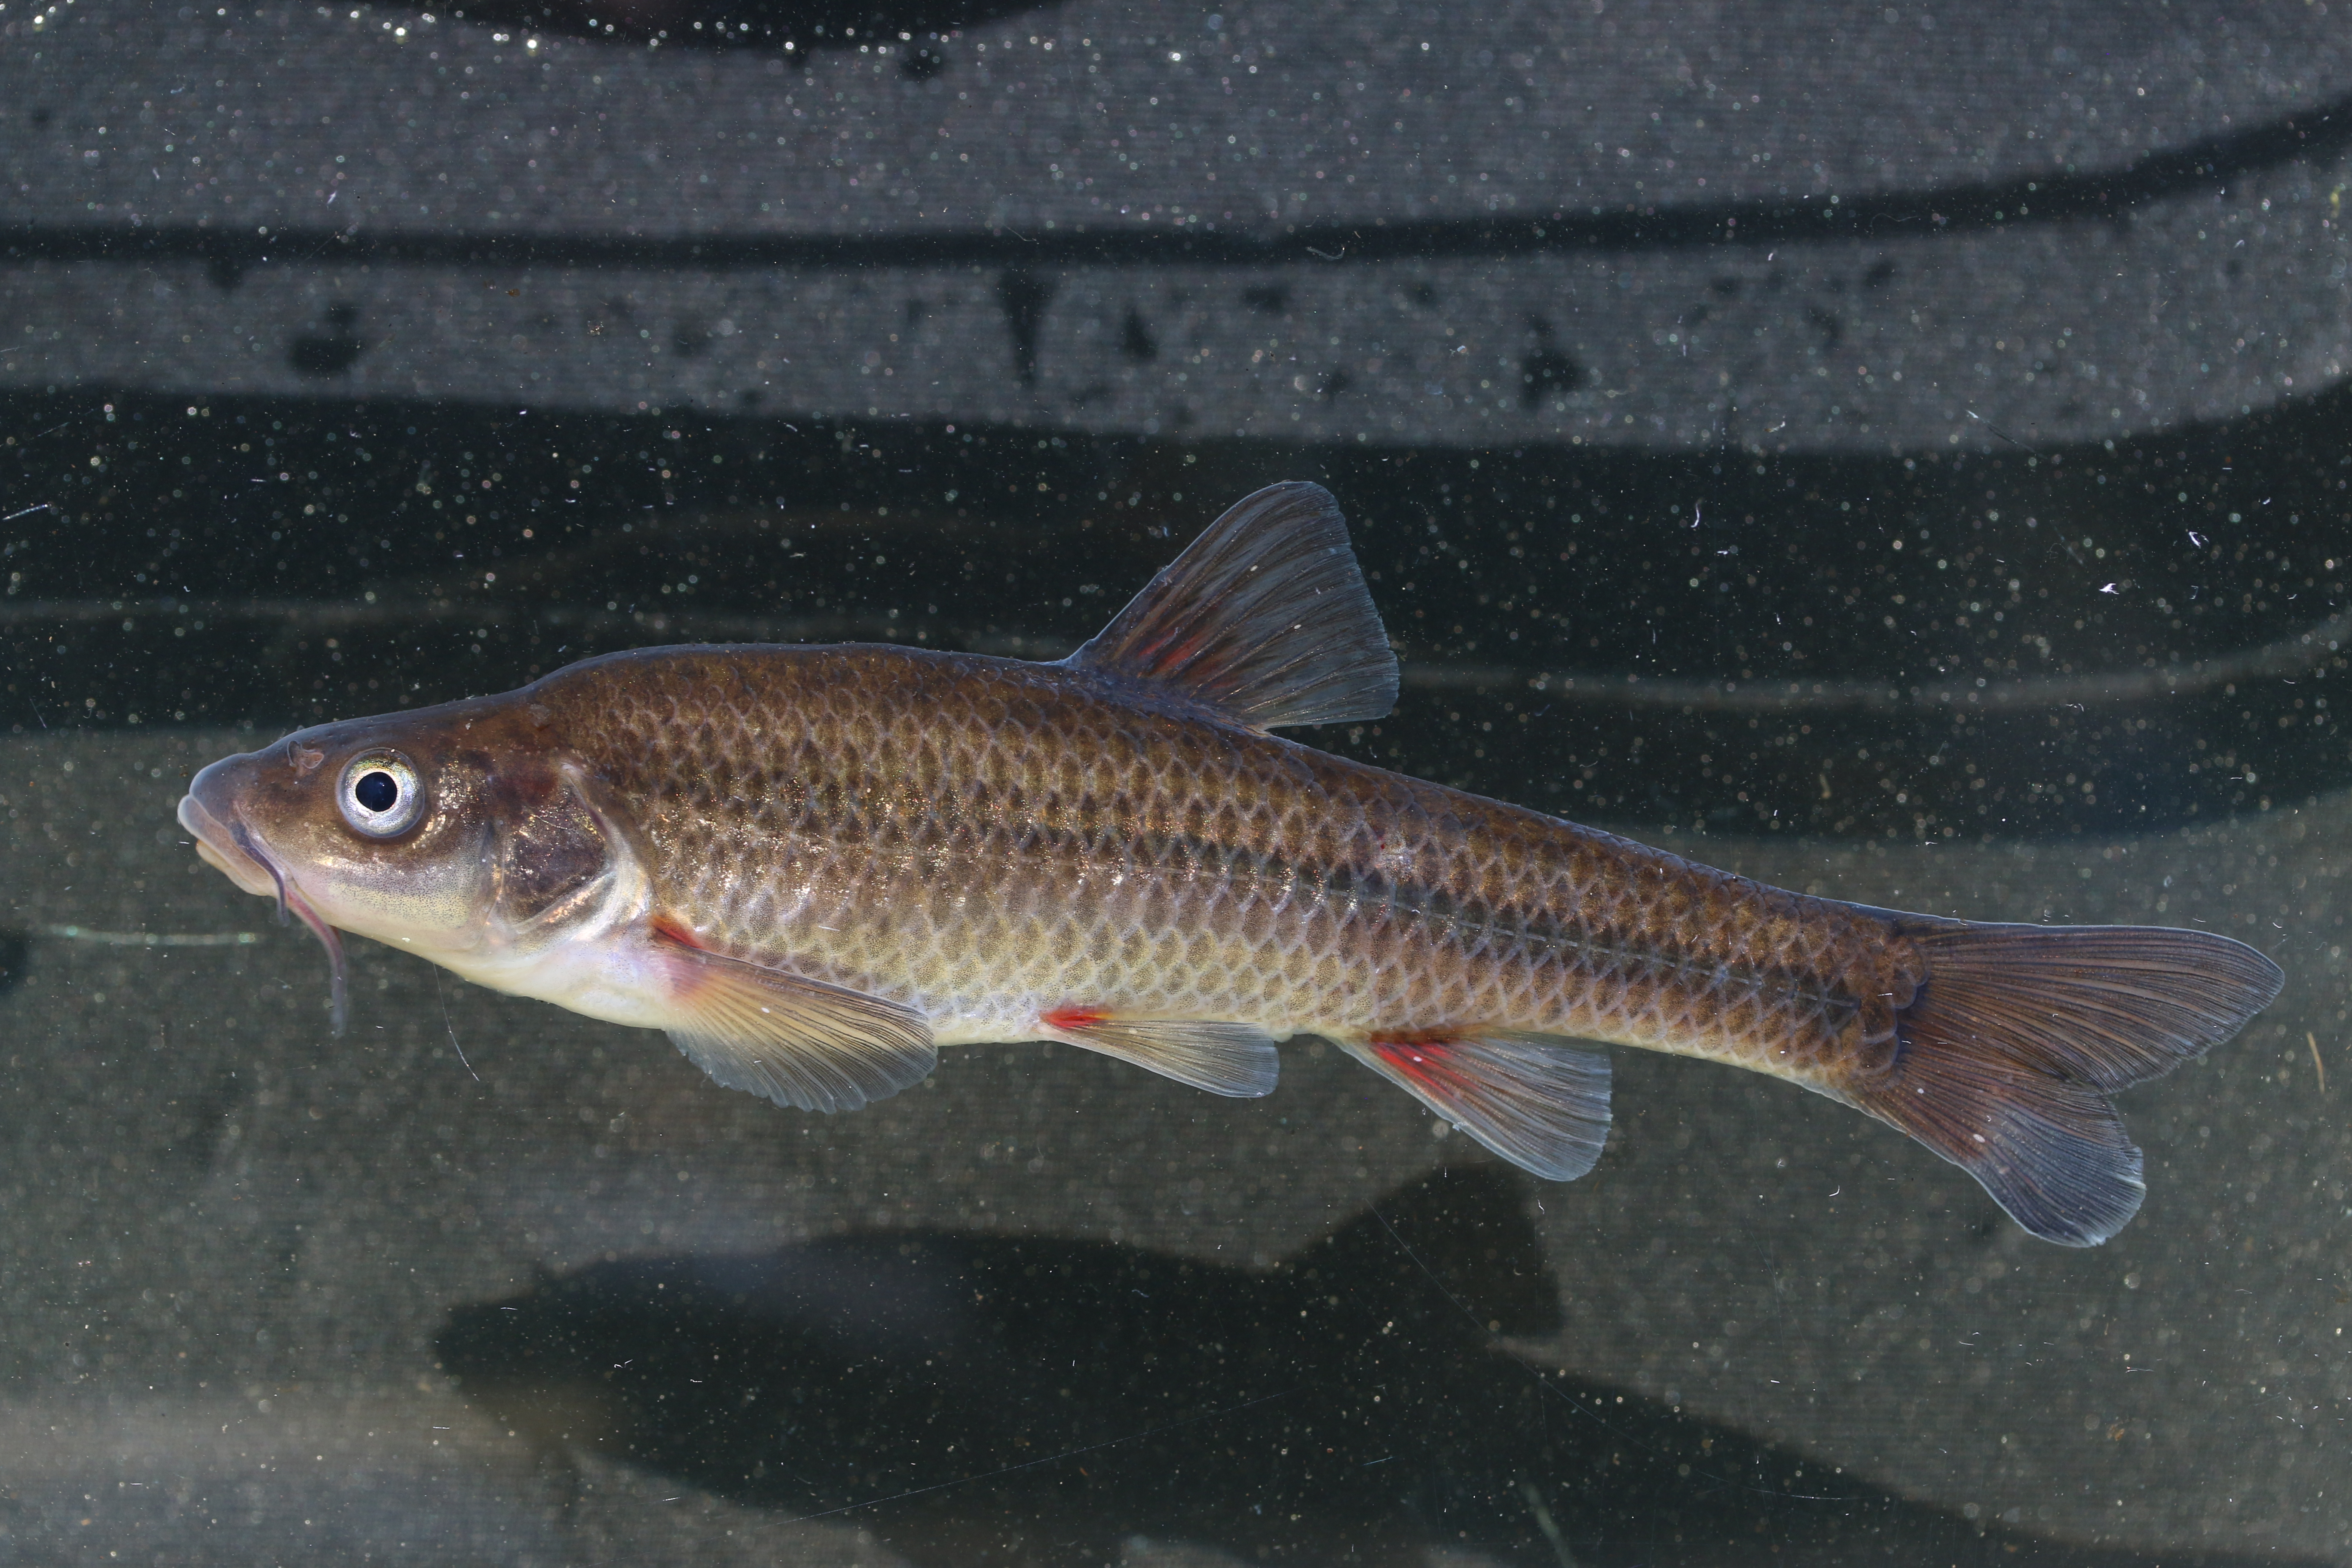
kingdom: Animalia
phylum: Chordata
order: Cypriniformes
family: Cyprinidae
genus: Pseudobarbus
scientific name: Pseudobarbus burchelli
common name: Burchell's redfin
